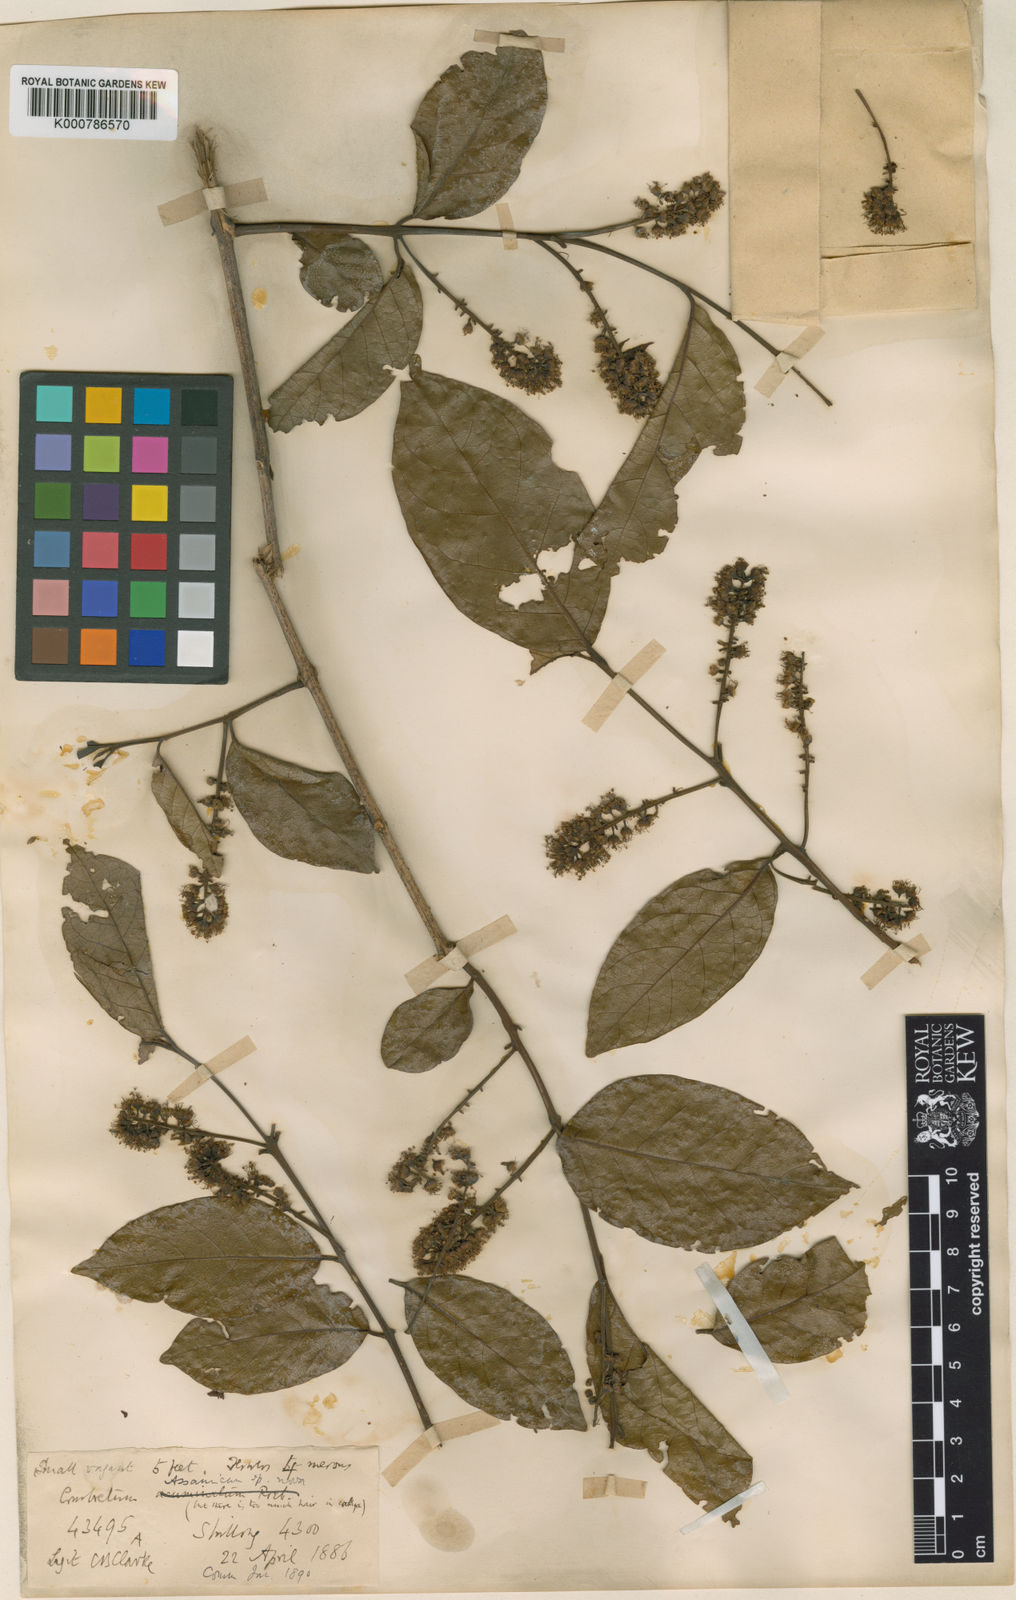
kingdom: Plantae
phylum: Tracheophyta
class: Magnoliopsida
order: Myrtales
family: Combretaceae
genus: Combretum
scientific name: Combretum acuminatum
